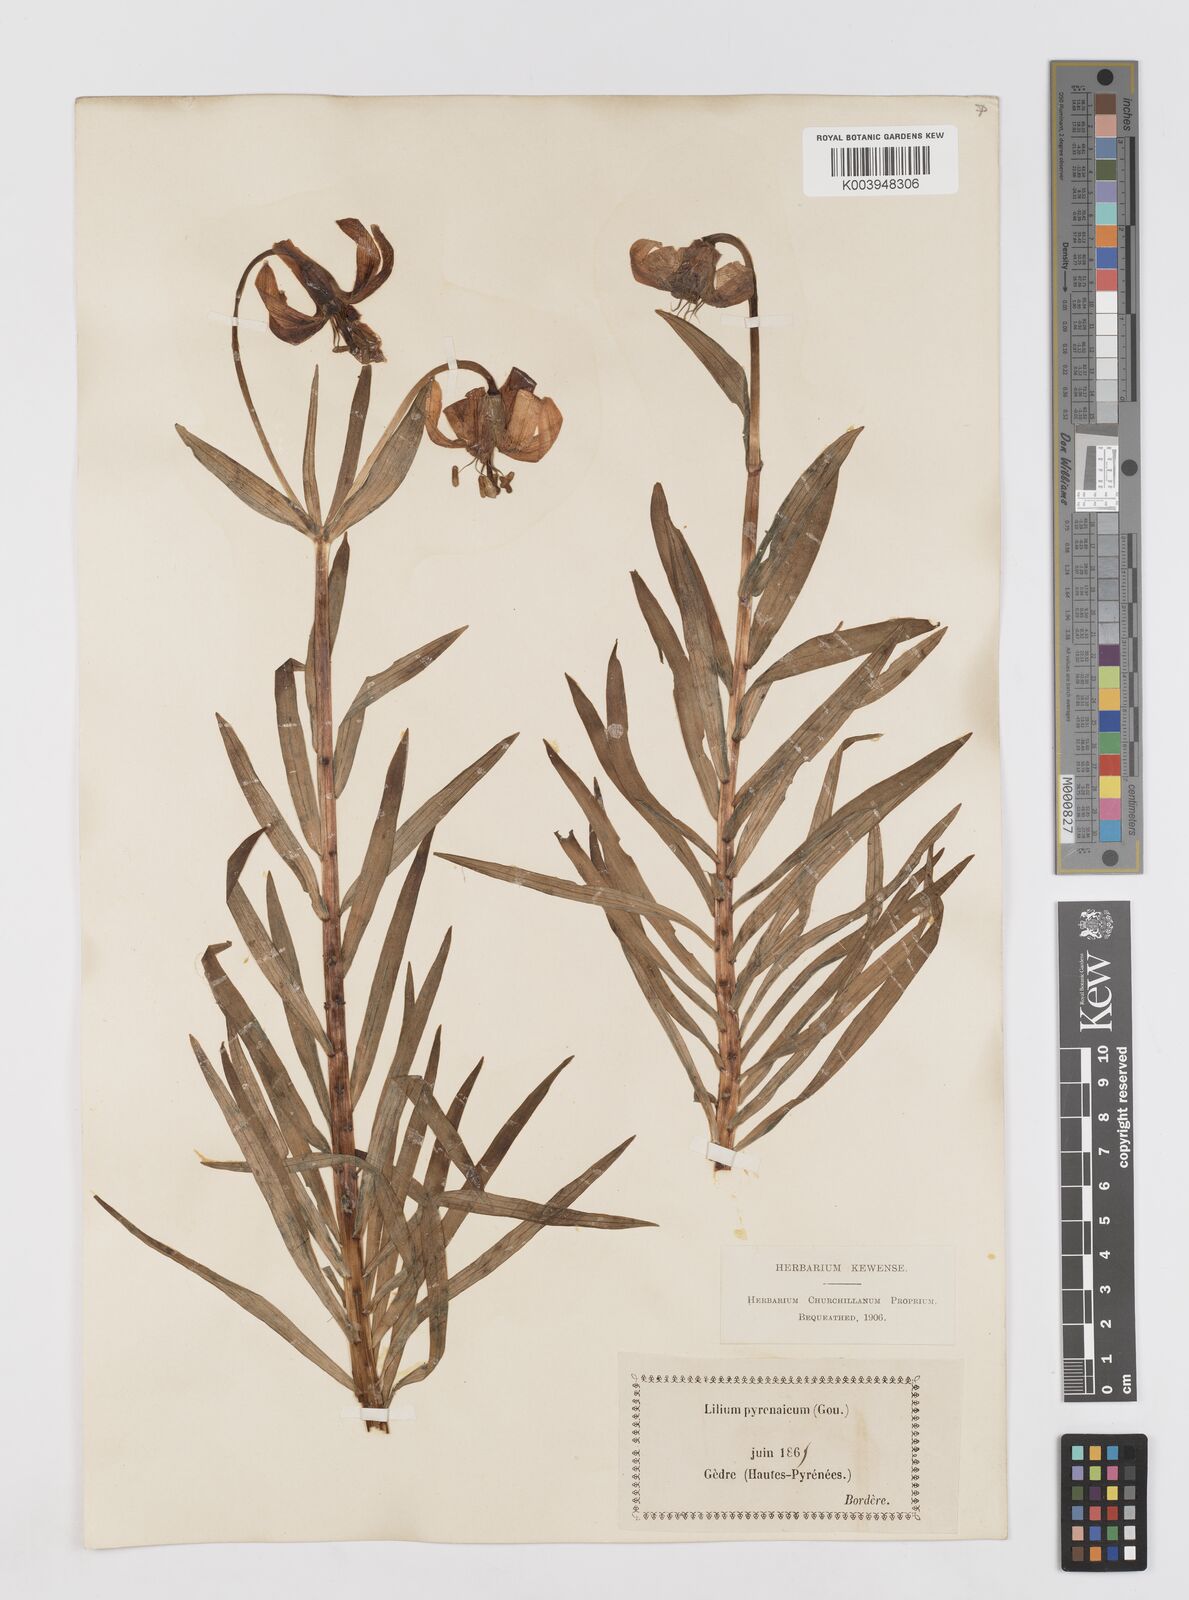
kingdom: Plantae
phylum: Tracheophyta
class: Liliopsida
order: Liliales
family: Liliaceae
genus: Lilium
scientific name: Lilium pyrenaicum
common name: Pyrenean lily
